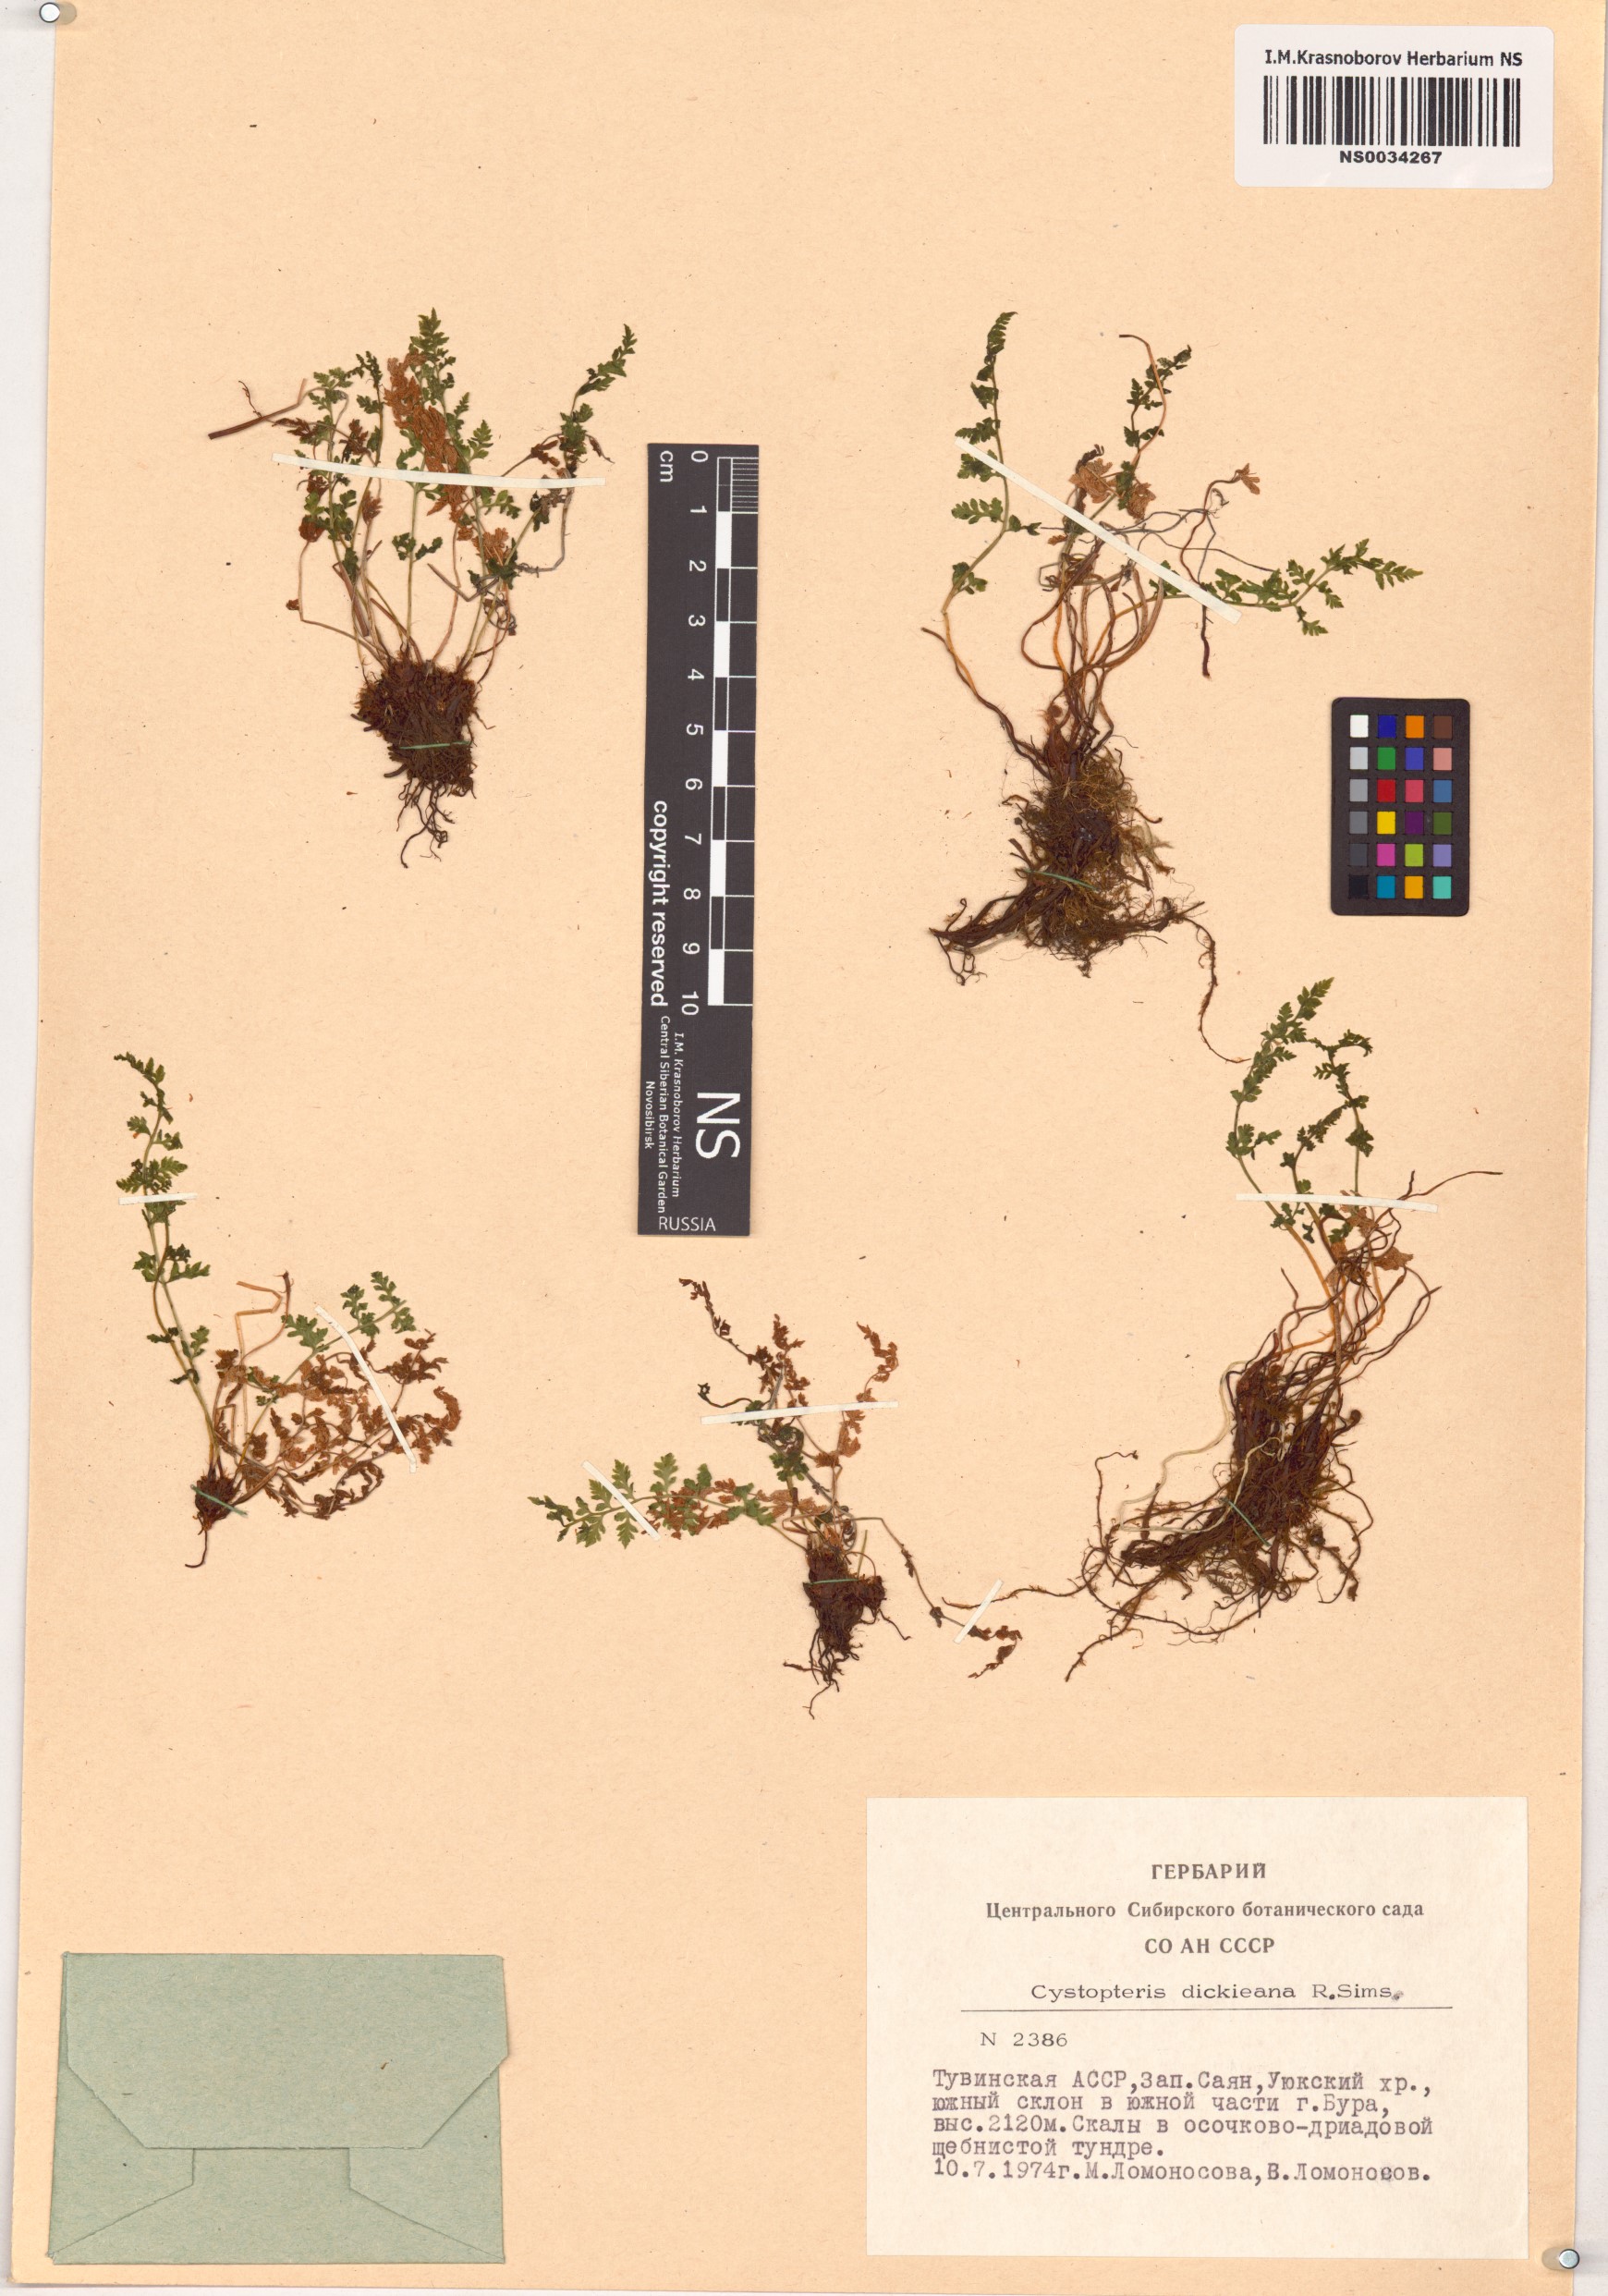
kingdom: Plantae
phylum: Tracheophyta
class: Polypodiopsida
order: Polypodiales
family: Cystopteridaceae
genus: Cystopteris
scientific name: Cystopteris dickieana
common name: Dickie's bladder-fern
